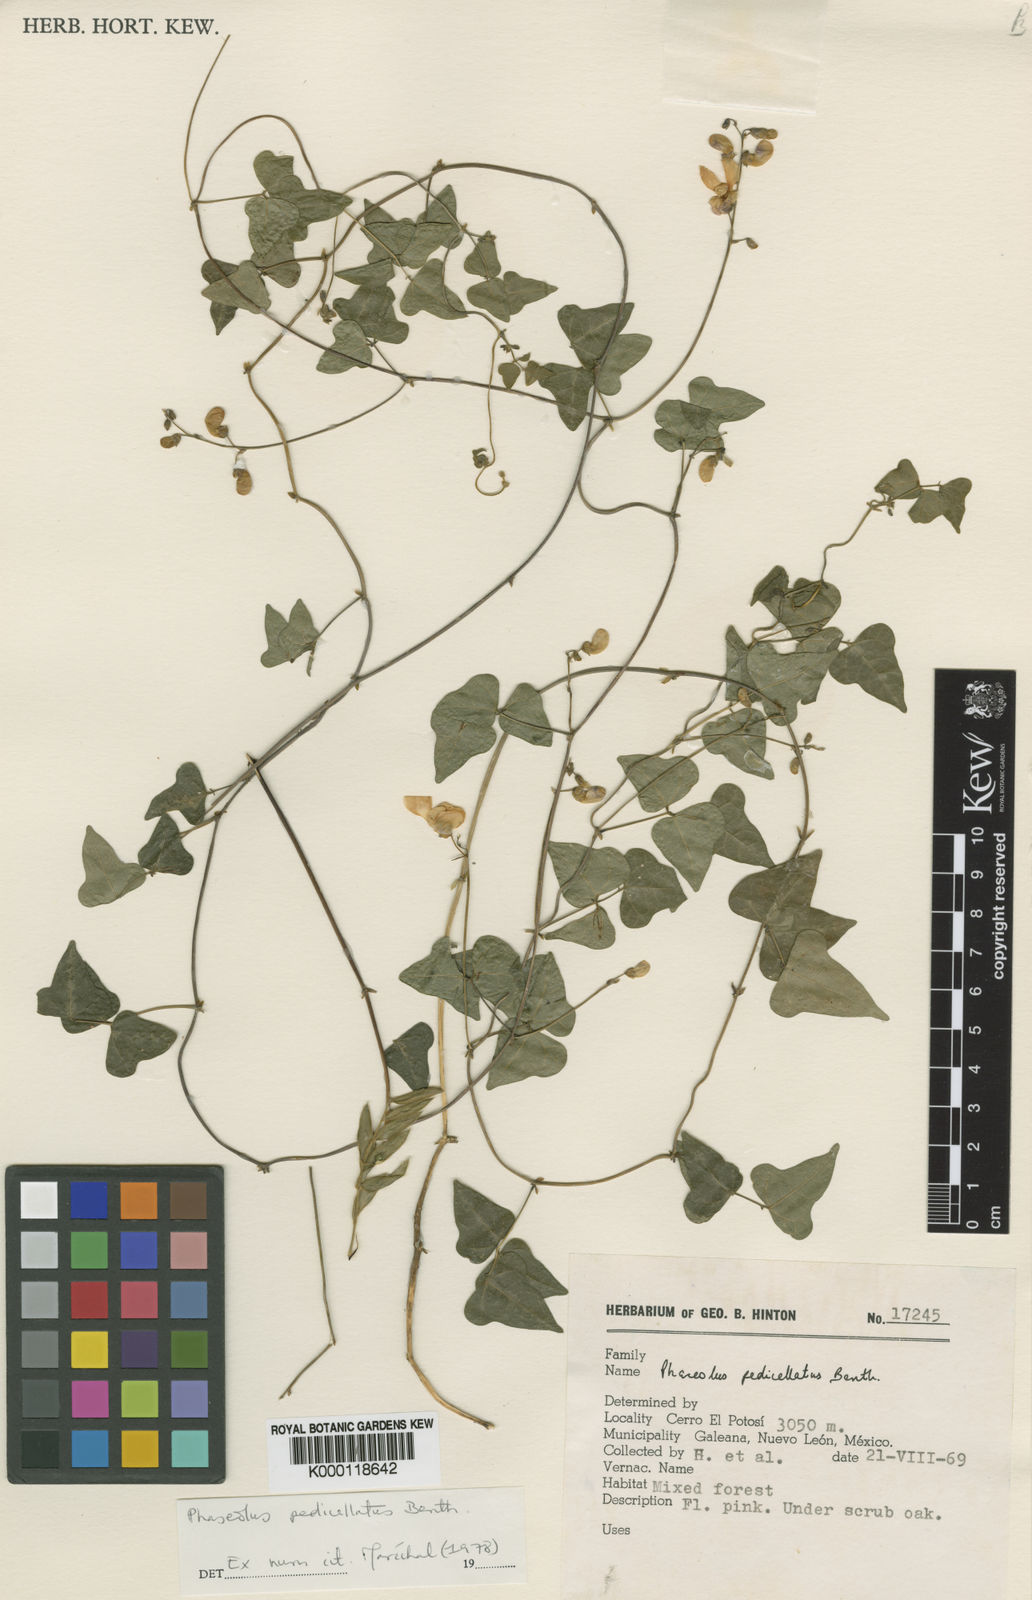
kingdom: Plantae
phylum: Tracheophyta
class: Magnoliopsida
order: Fabales
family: Fabaceae
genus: Phaseolus
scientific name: Phaseolus pedicellatus
